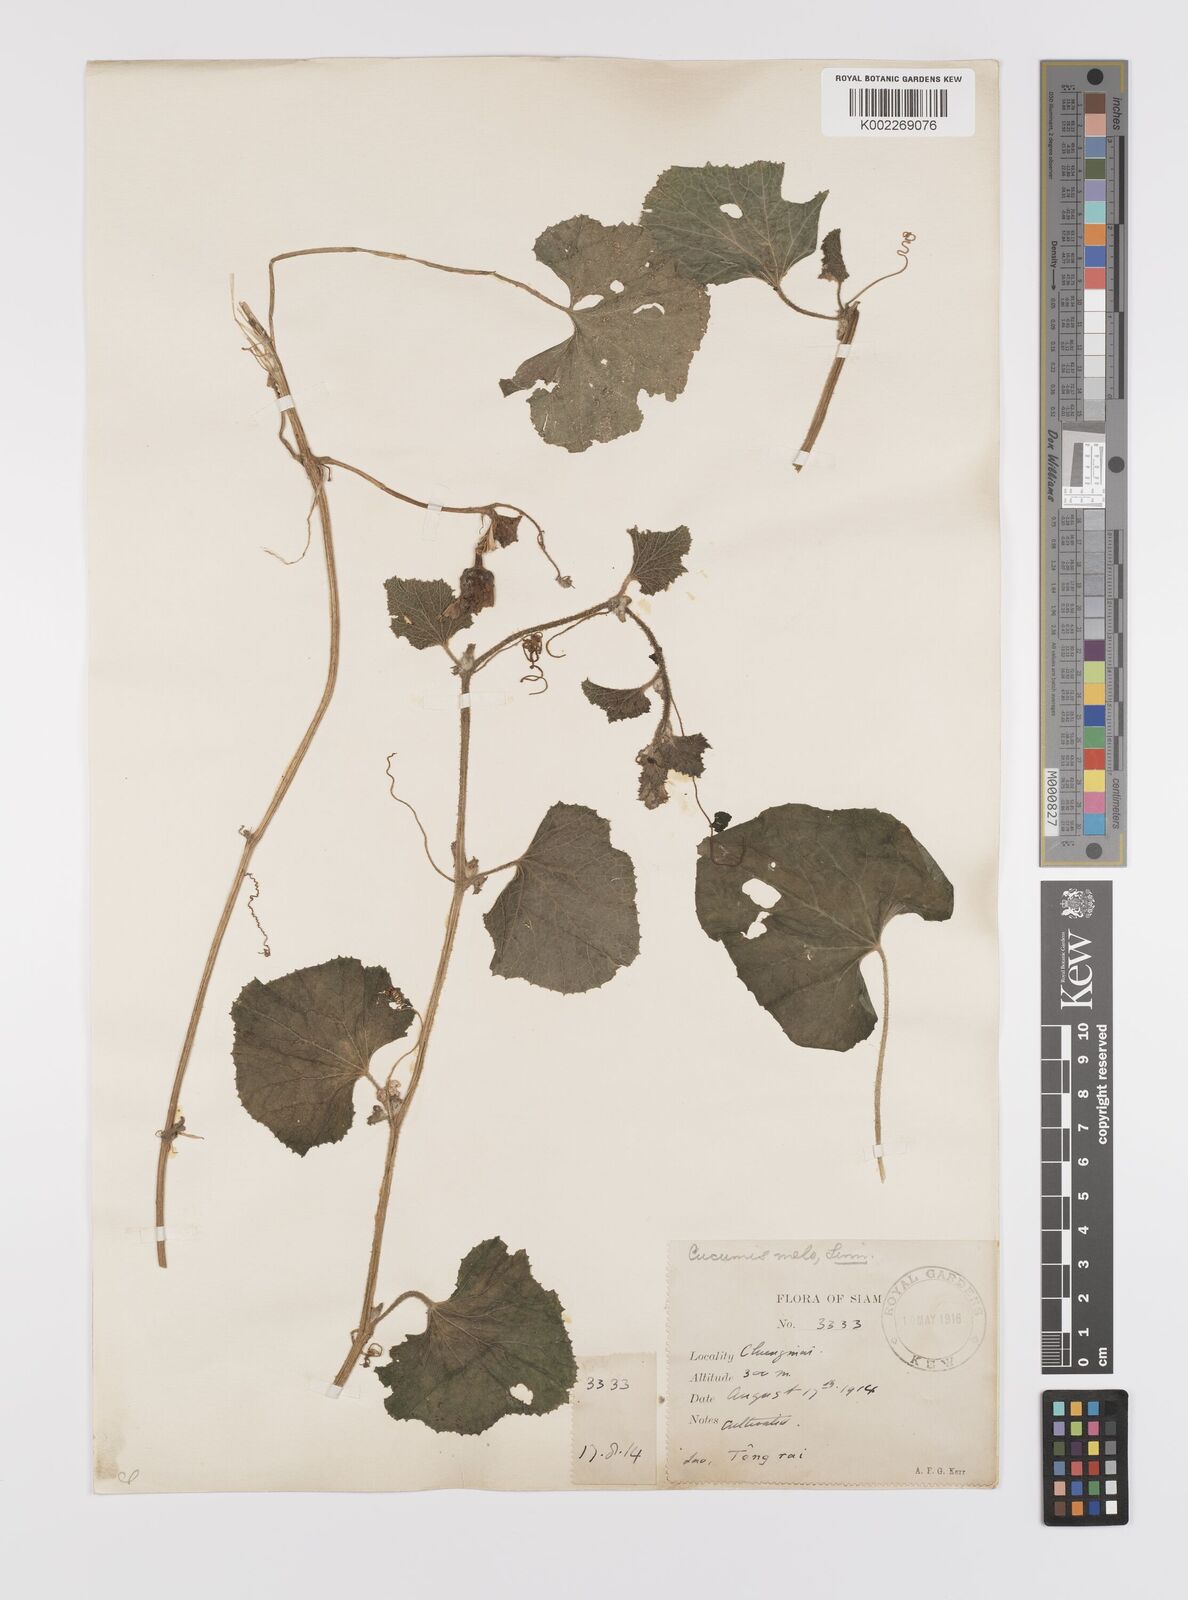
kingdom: Plantae
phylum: Tracheophyta
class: Magnoliopsida
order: Cucurbitales
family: Cucurbitaceae
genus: Cucumis
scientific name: Cucumis melo
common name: Melon
